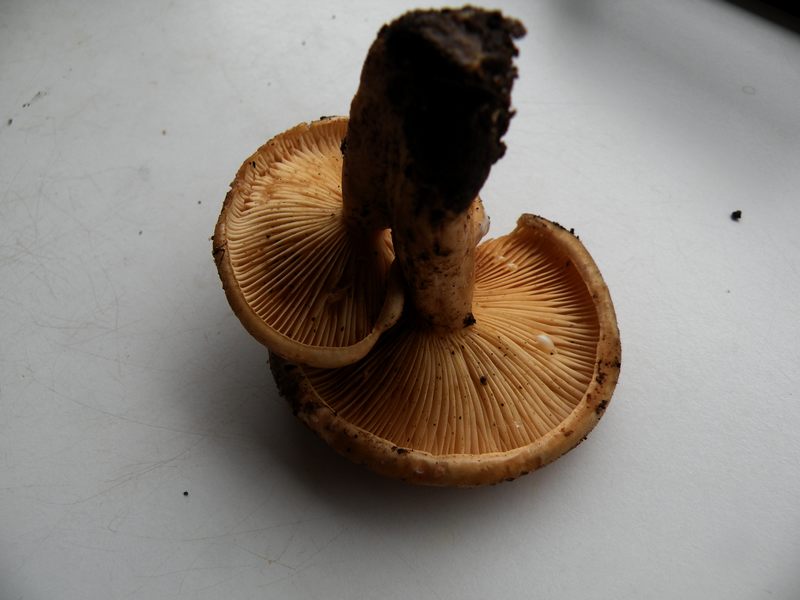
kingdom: Fungi
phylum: Basidiomycota
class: Agaricomycetes
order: Russulales
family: Russulaceae
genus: Lactarius
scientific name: Lactarius pyrogalus
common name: hassel-mælkehat
